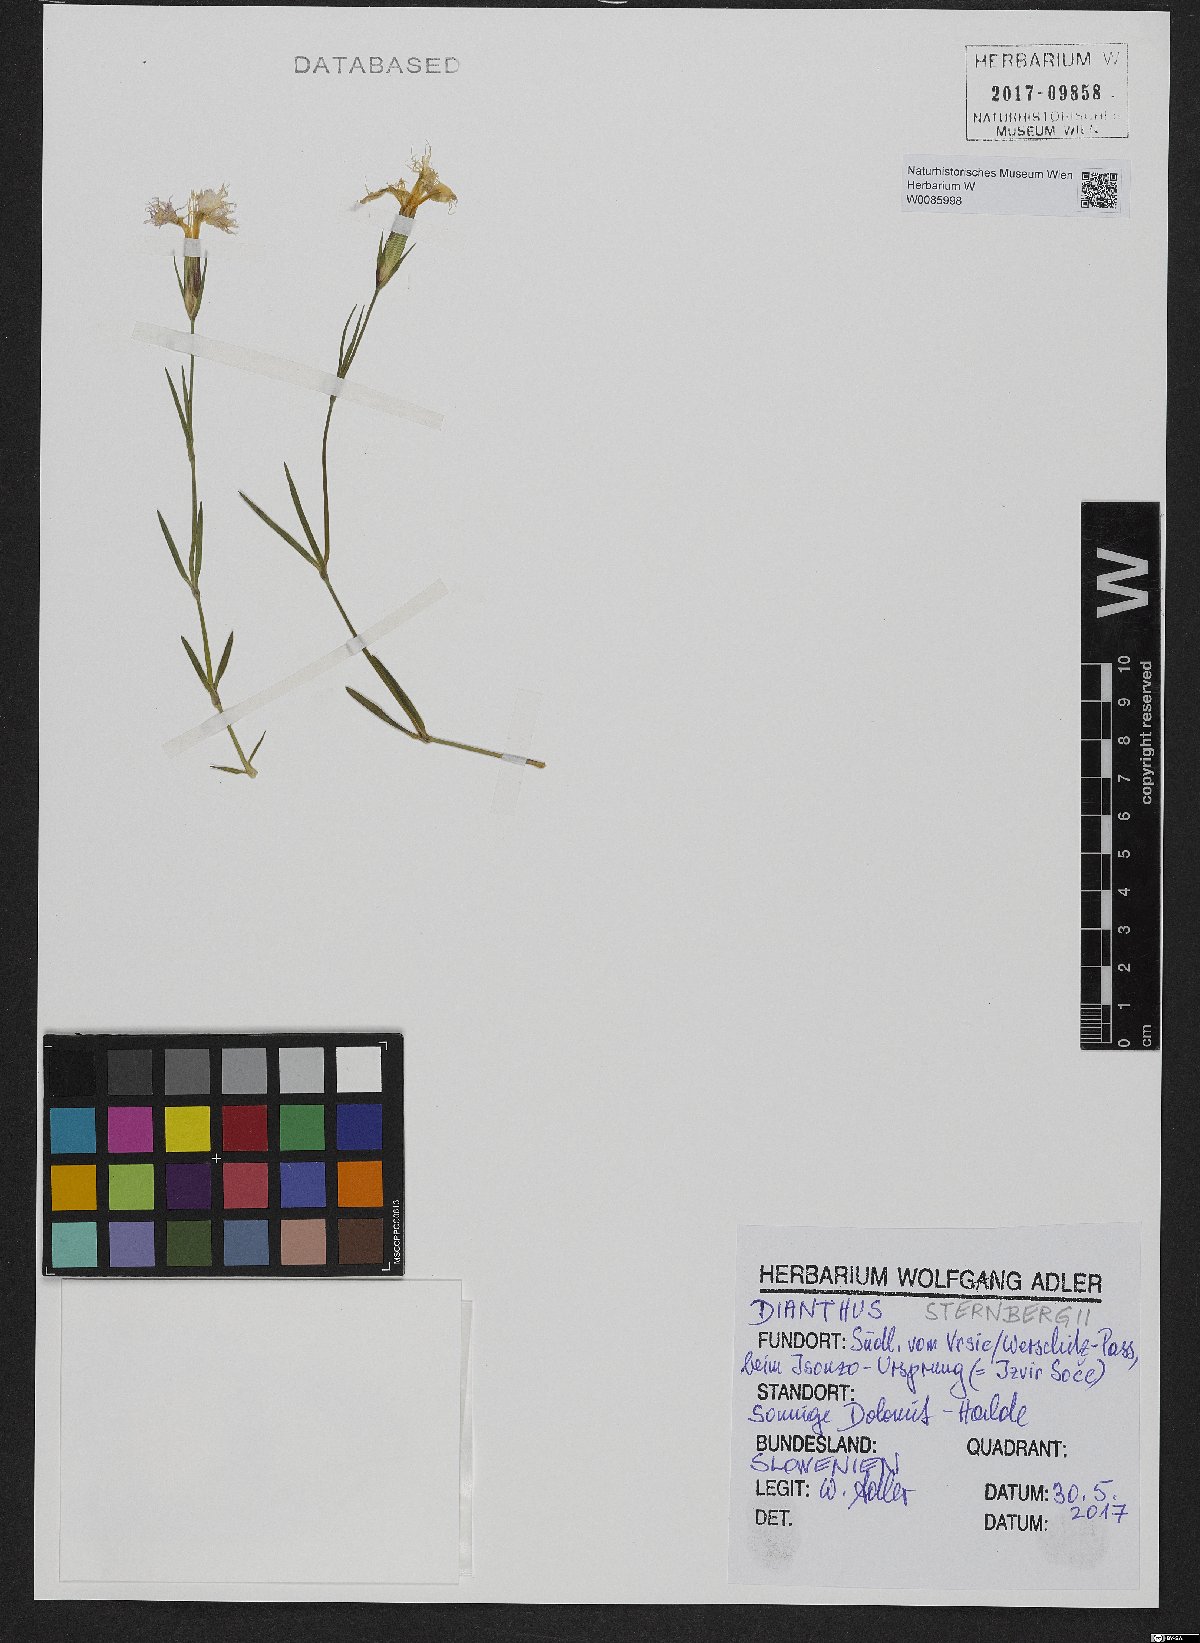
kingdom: Plantae
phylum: Tracheophyta
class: Magnoliopsida
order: Caryophyllales
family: Caryophyllaceae
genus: Dianthus
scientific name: Dianthus sternbergii
